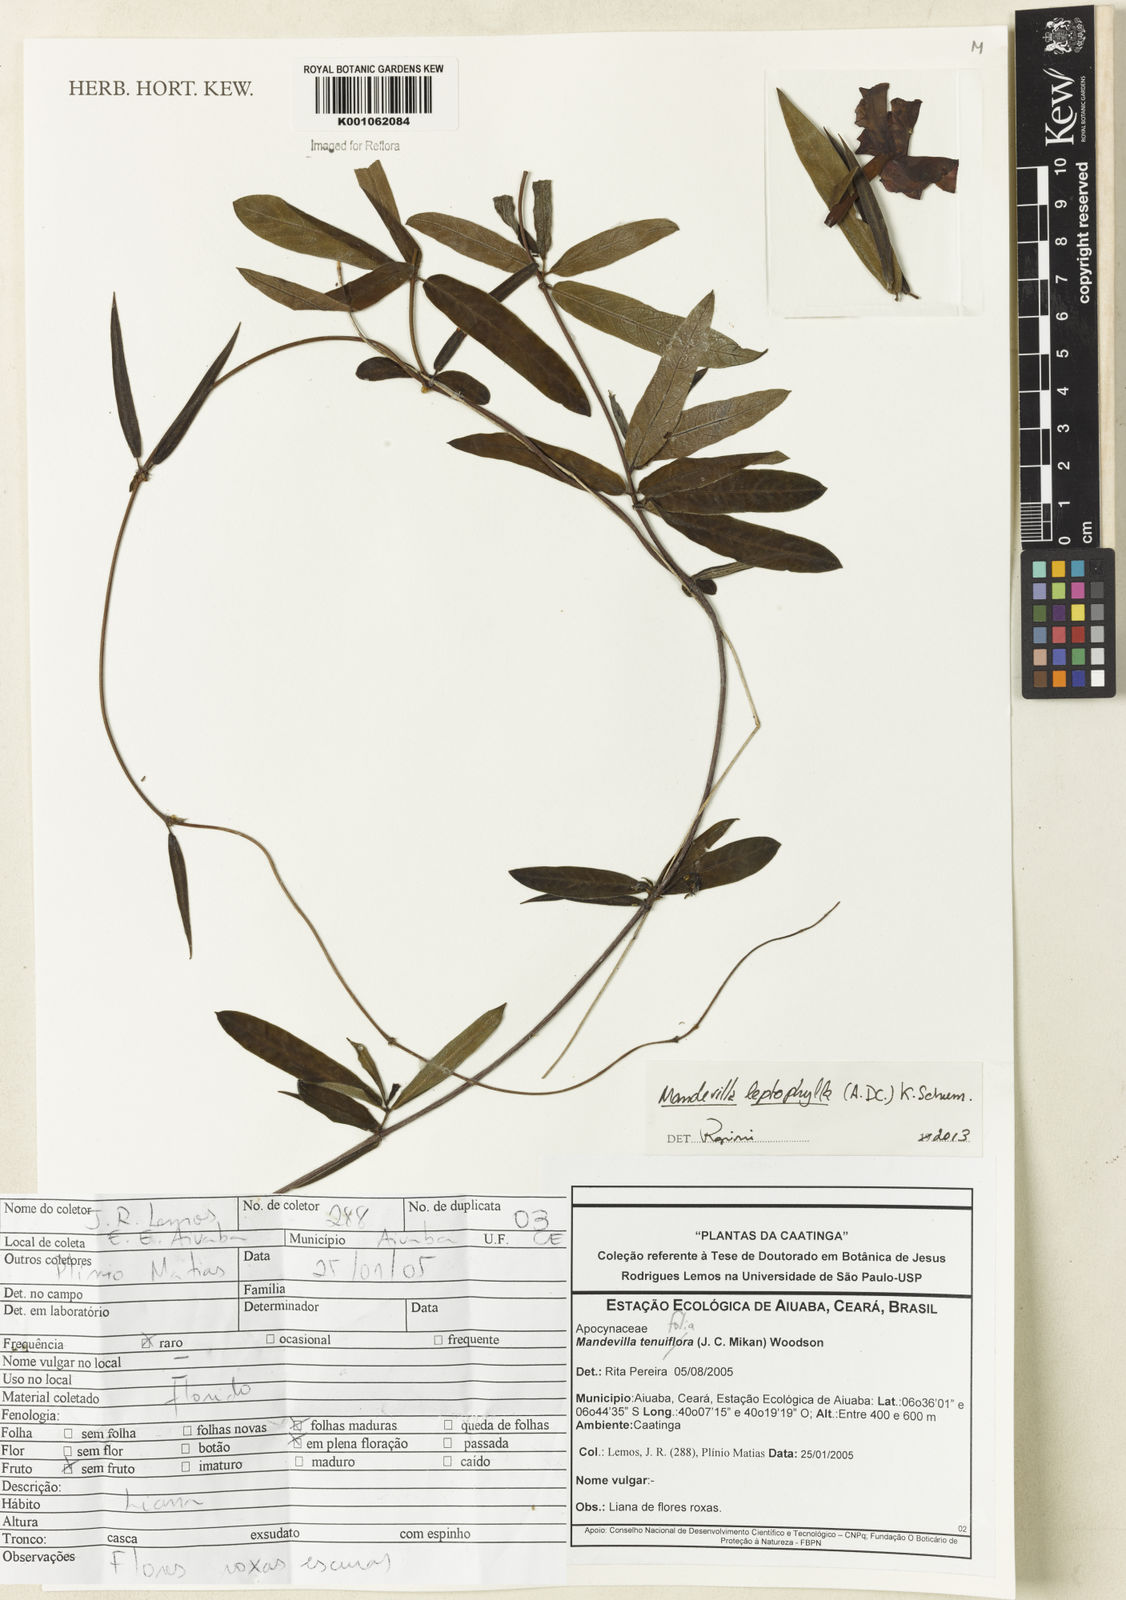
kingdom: Plantae
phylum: Tracheophyta
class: Magnoliopsida
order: Gentianales
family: Apocynaceae
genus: Mandevilla
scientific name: Mandevilla leptophylla
